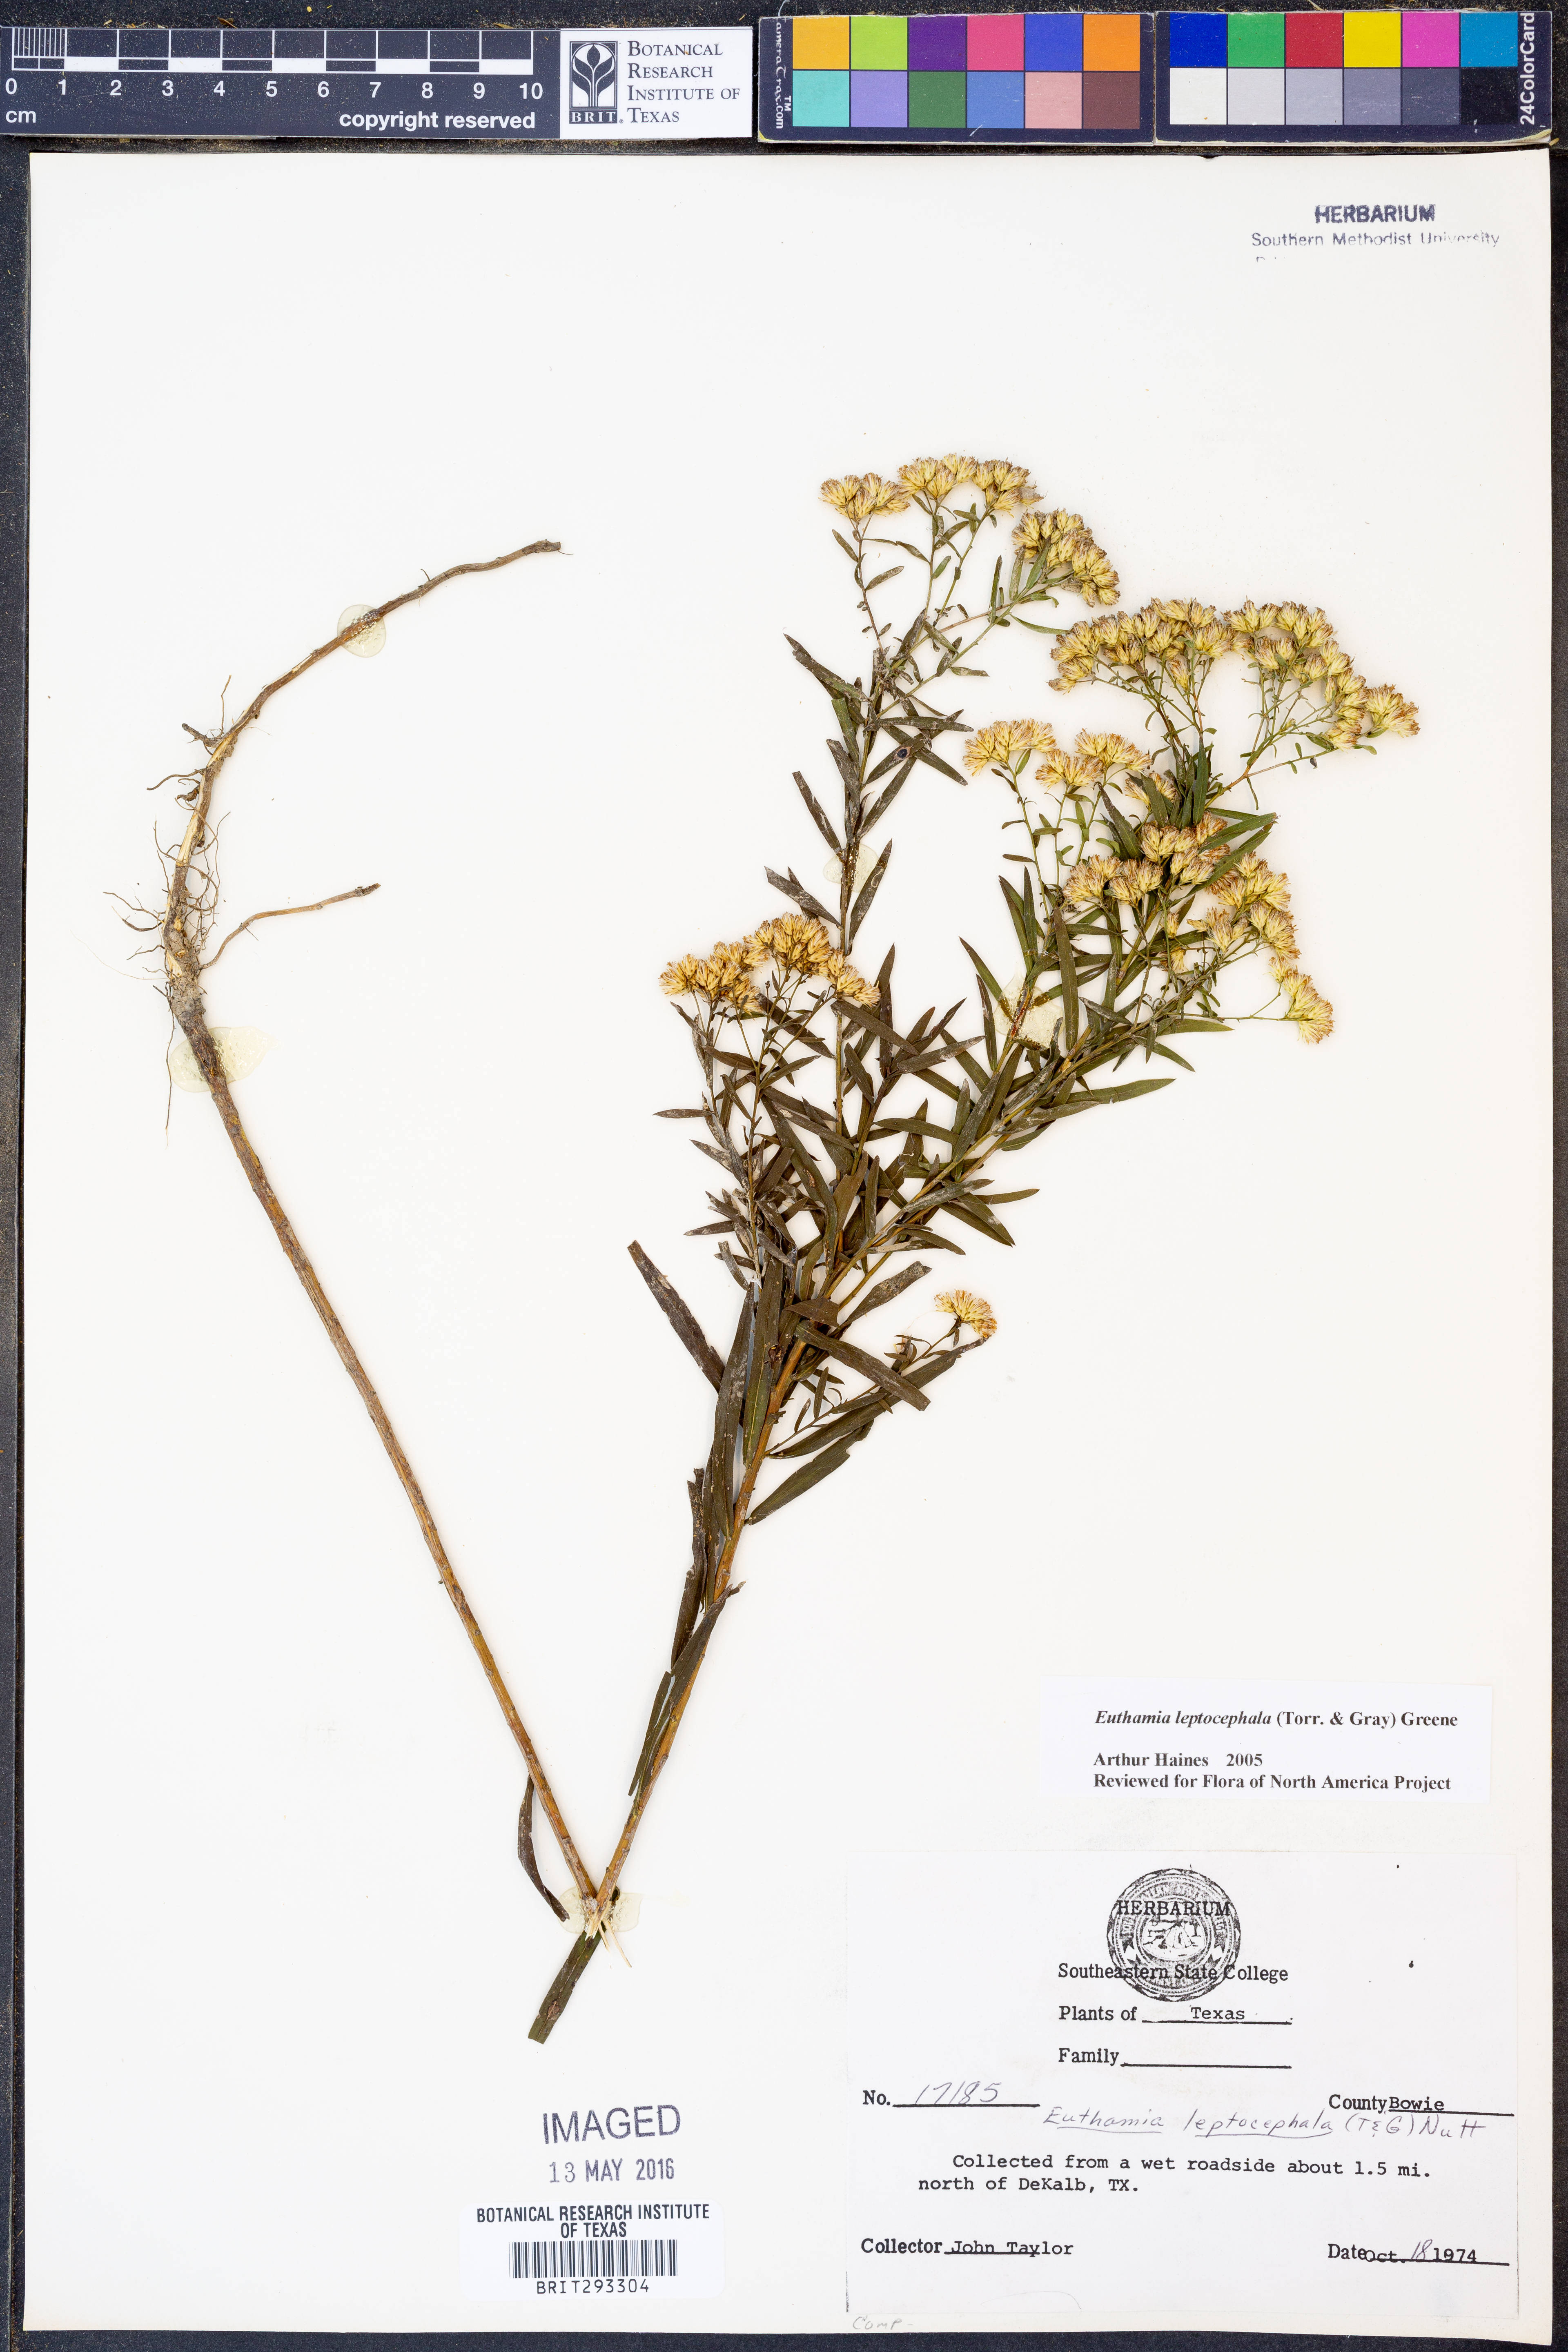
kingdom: Plantae
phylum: Tracheophyta
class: Magnoliopsida
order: Asterales
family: Asteraceae
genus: Euthamia
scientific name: Euthamia leptocephala
